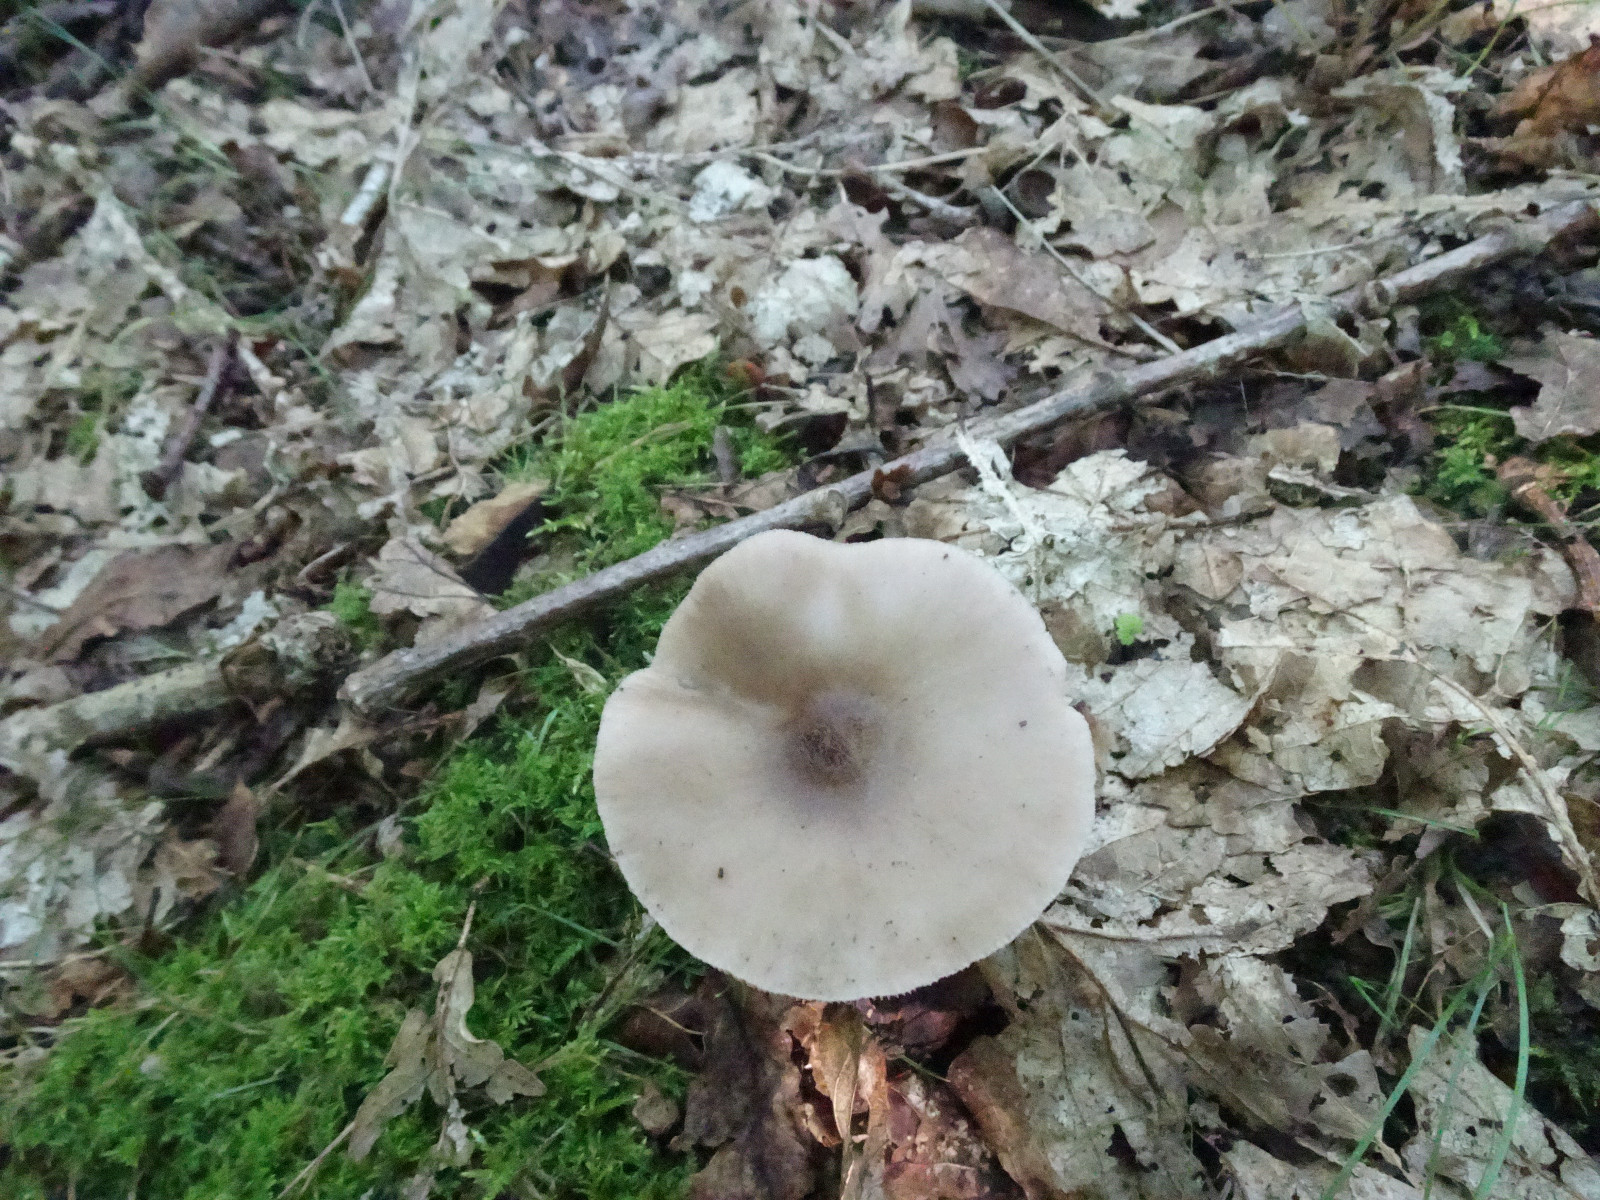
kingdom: Fungi
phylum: Basidiomycota
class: Agaricomycetes
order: Agaricales
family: Pluteaceae
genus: Pluteus
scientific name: Pluteus salicinus
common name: stiv skærmhat
